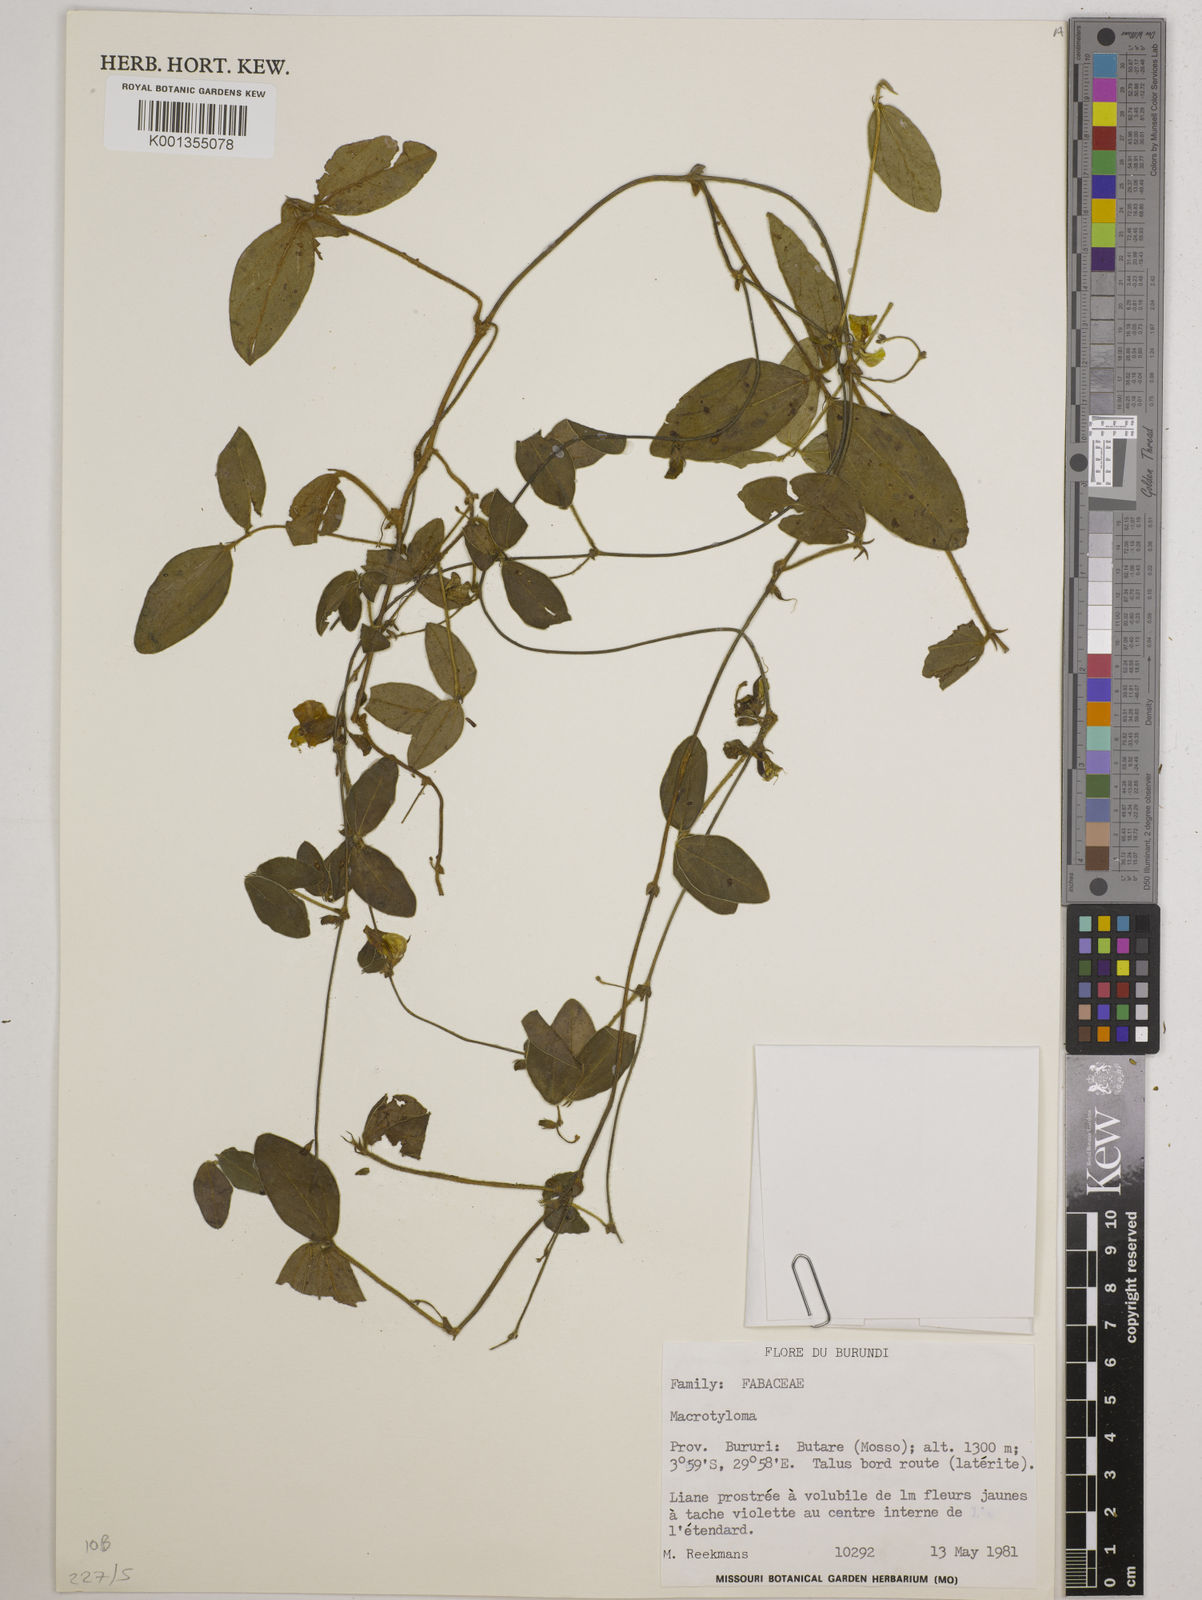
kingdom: Plantae
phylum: Tracheophyta
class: Magnoliopsida
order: Fabales
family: Fabaceae
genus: Macrotyloma
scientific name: Macrotyloma
